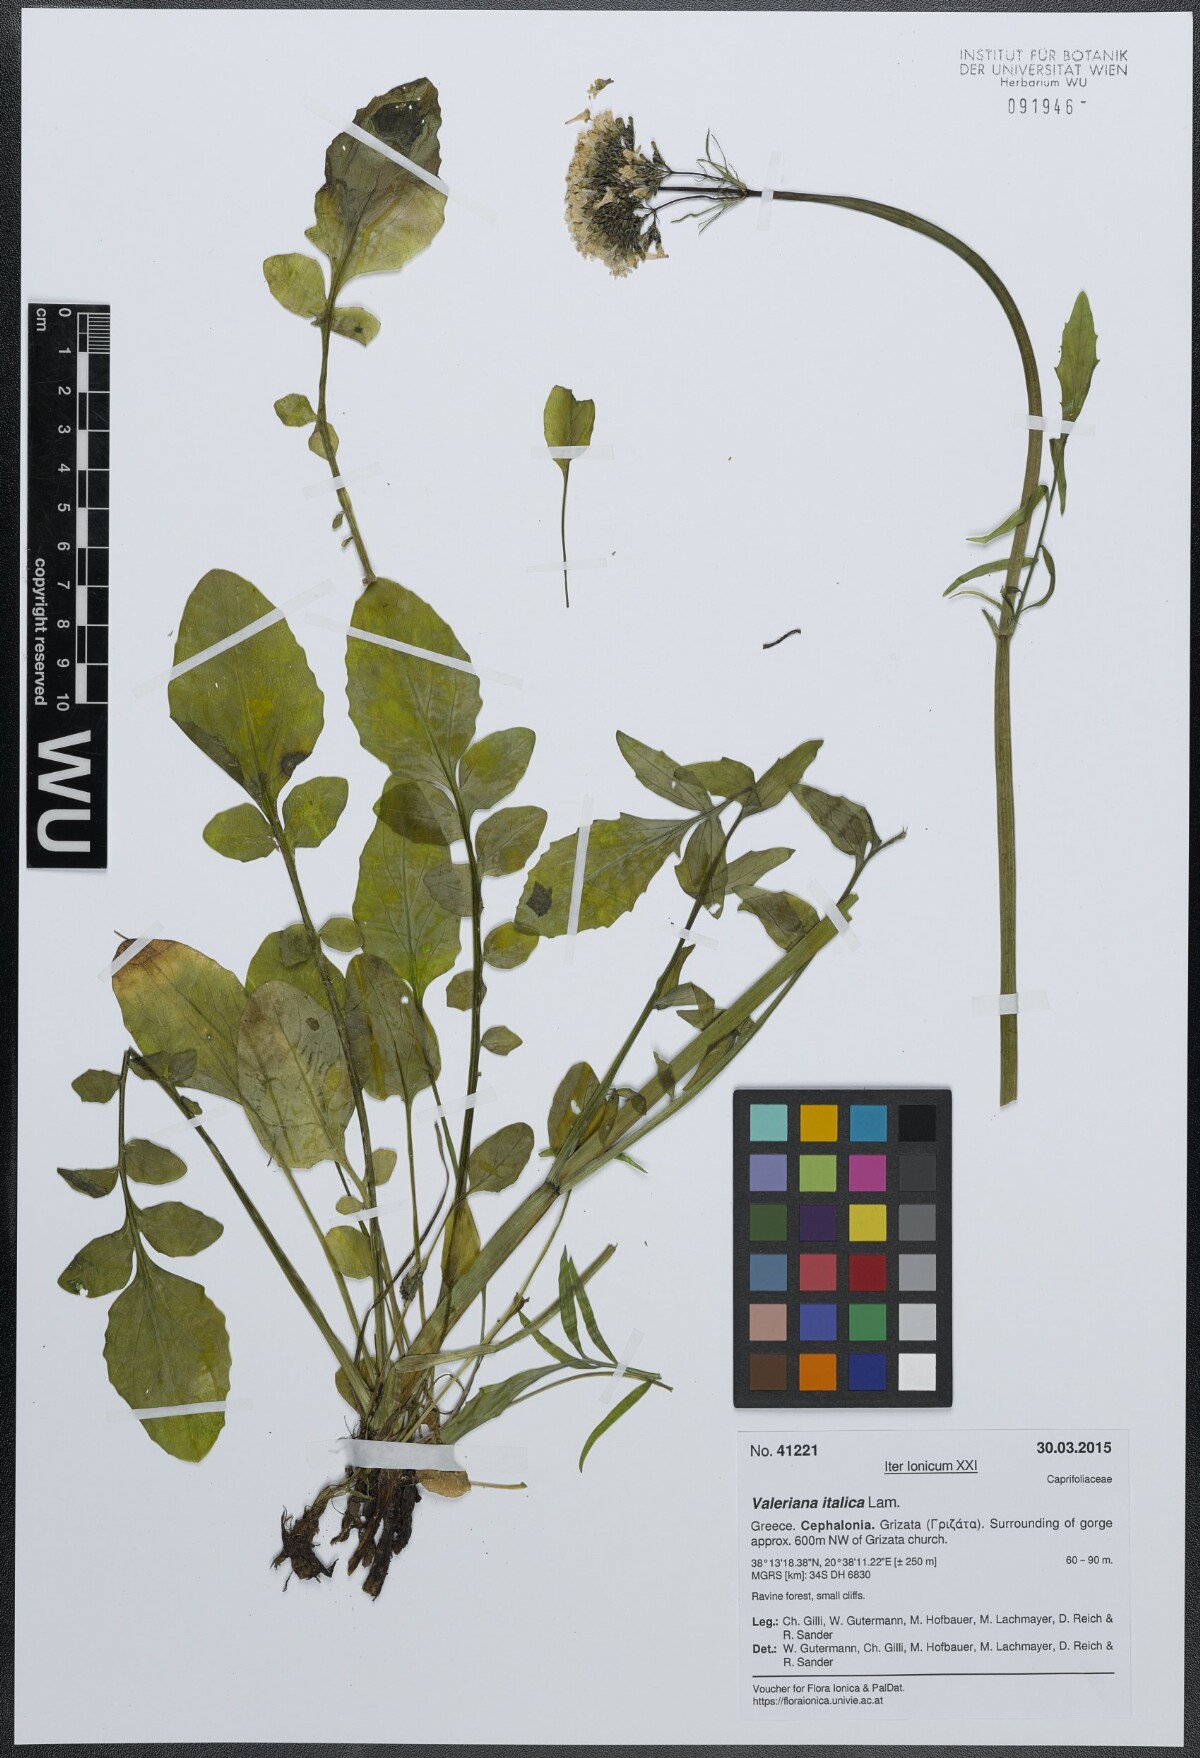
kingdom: Plantae
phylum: Tracheophyta
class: Magnoliopsida
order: Dipsacales
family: Caprifoliaceae
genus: Valeriana
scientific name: Valeriana dioscoridis
